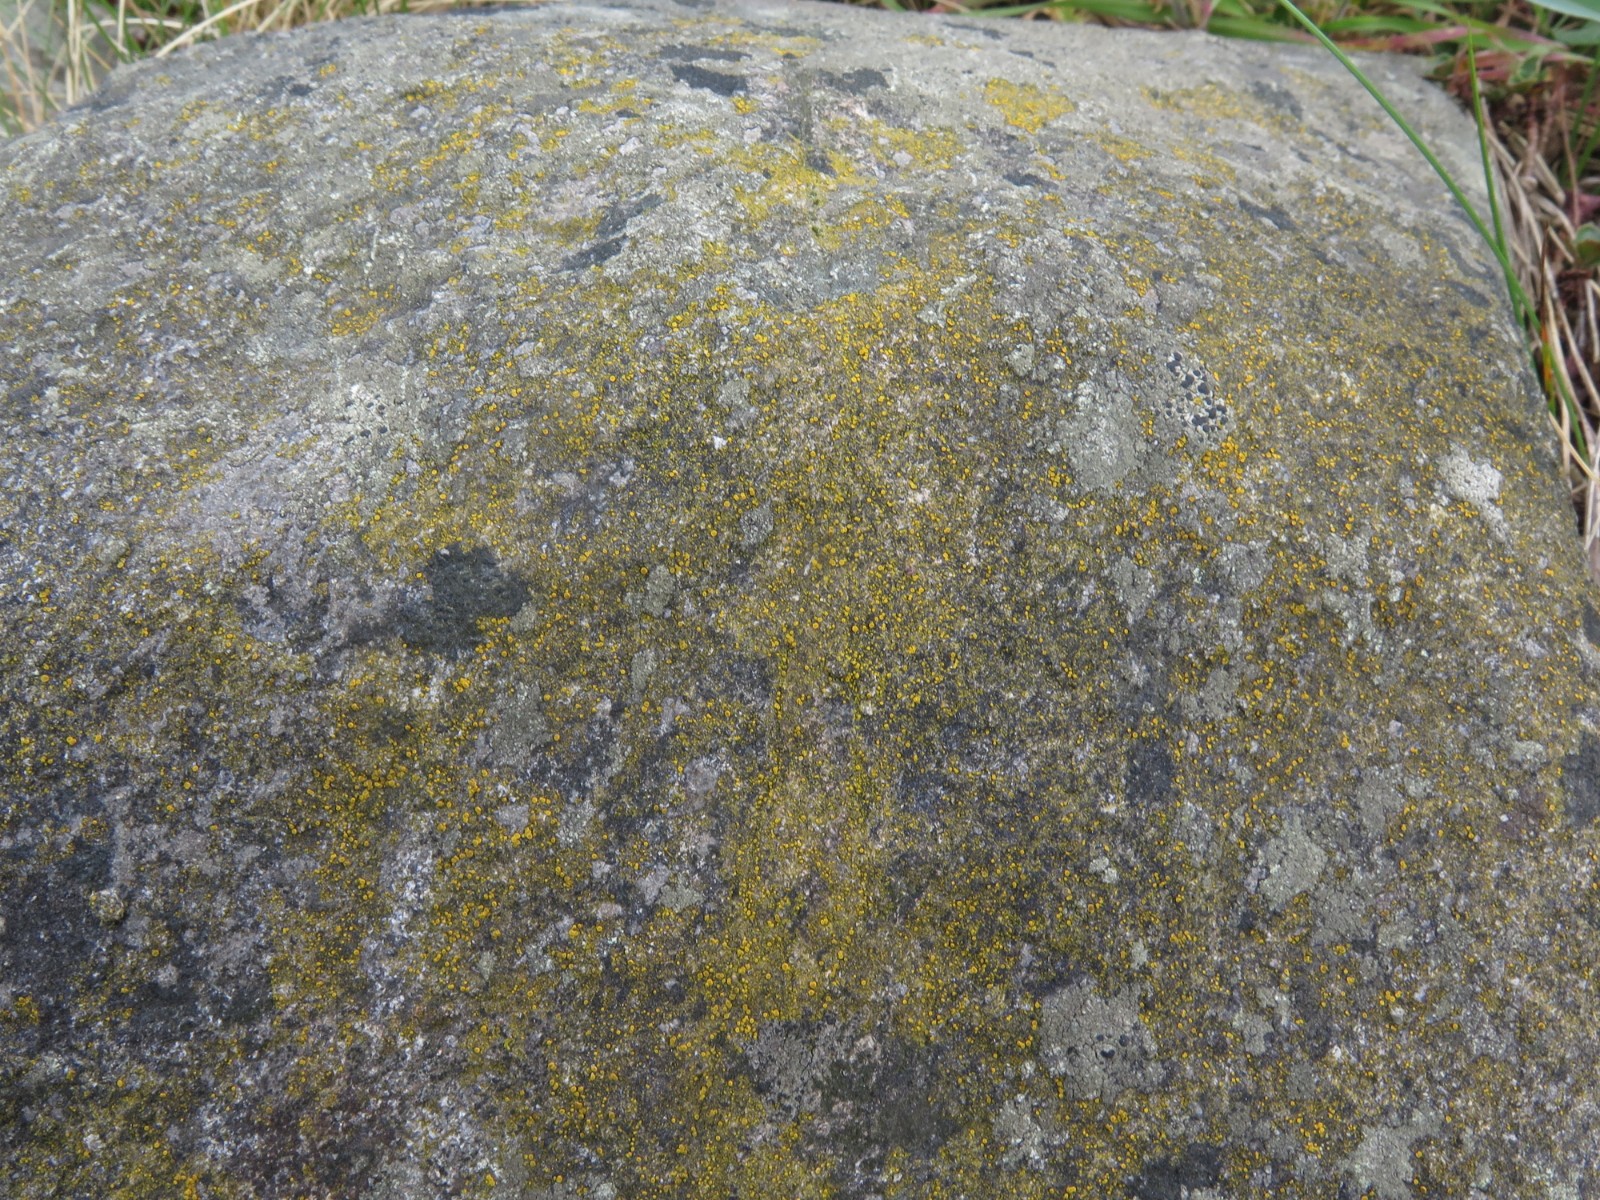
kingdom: Fungi
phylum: Ascomycota
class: Candelariomycetes
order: Candelariales
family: Candelariaceae
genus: Candelariella
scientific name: Candelariella aurella
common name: liden æggeblommelav
